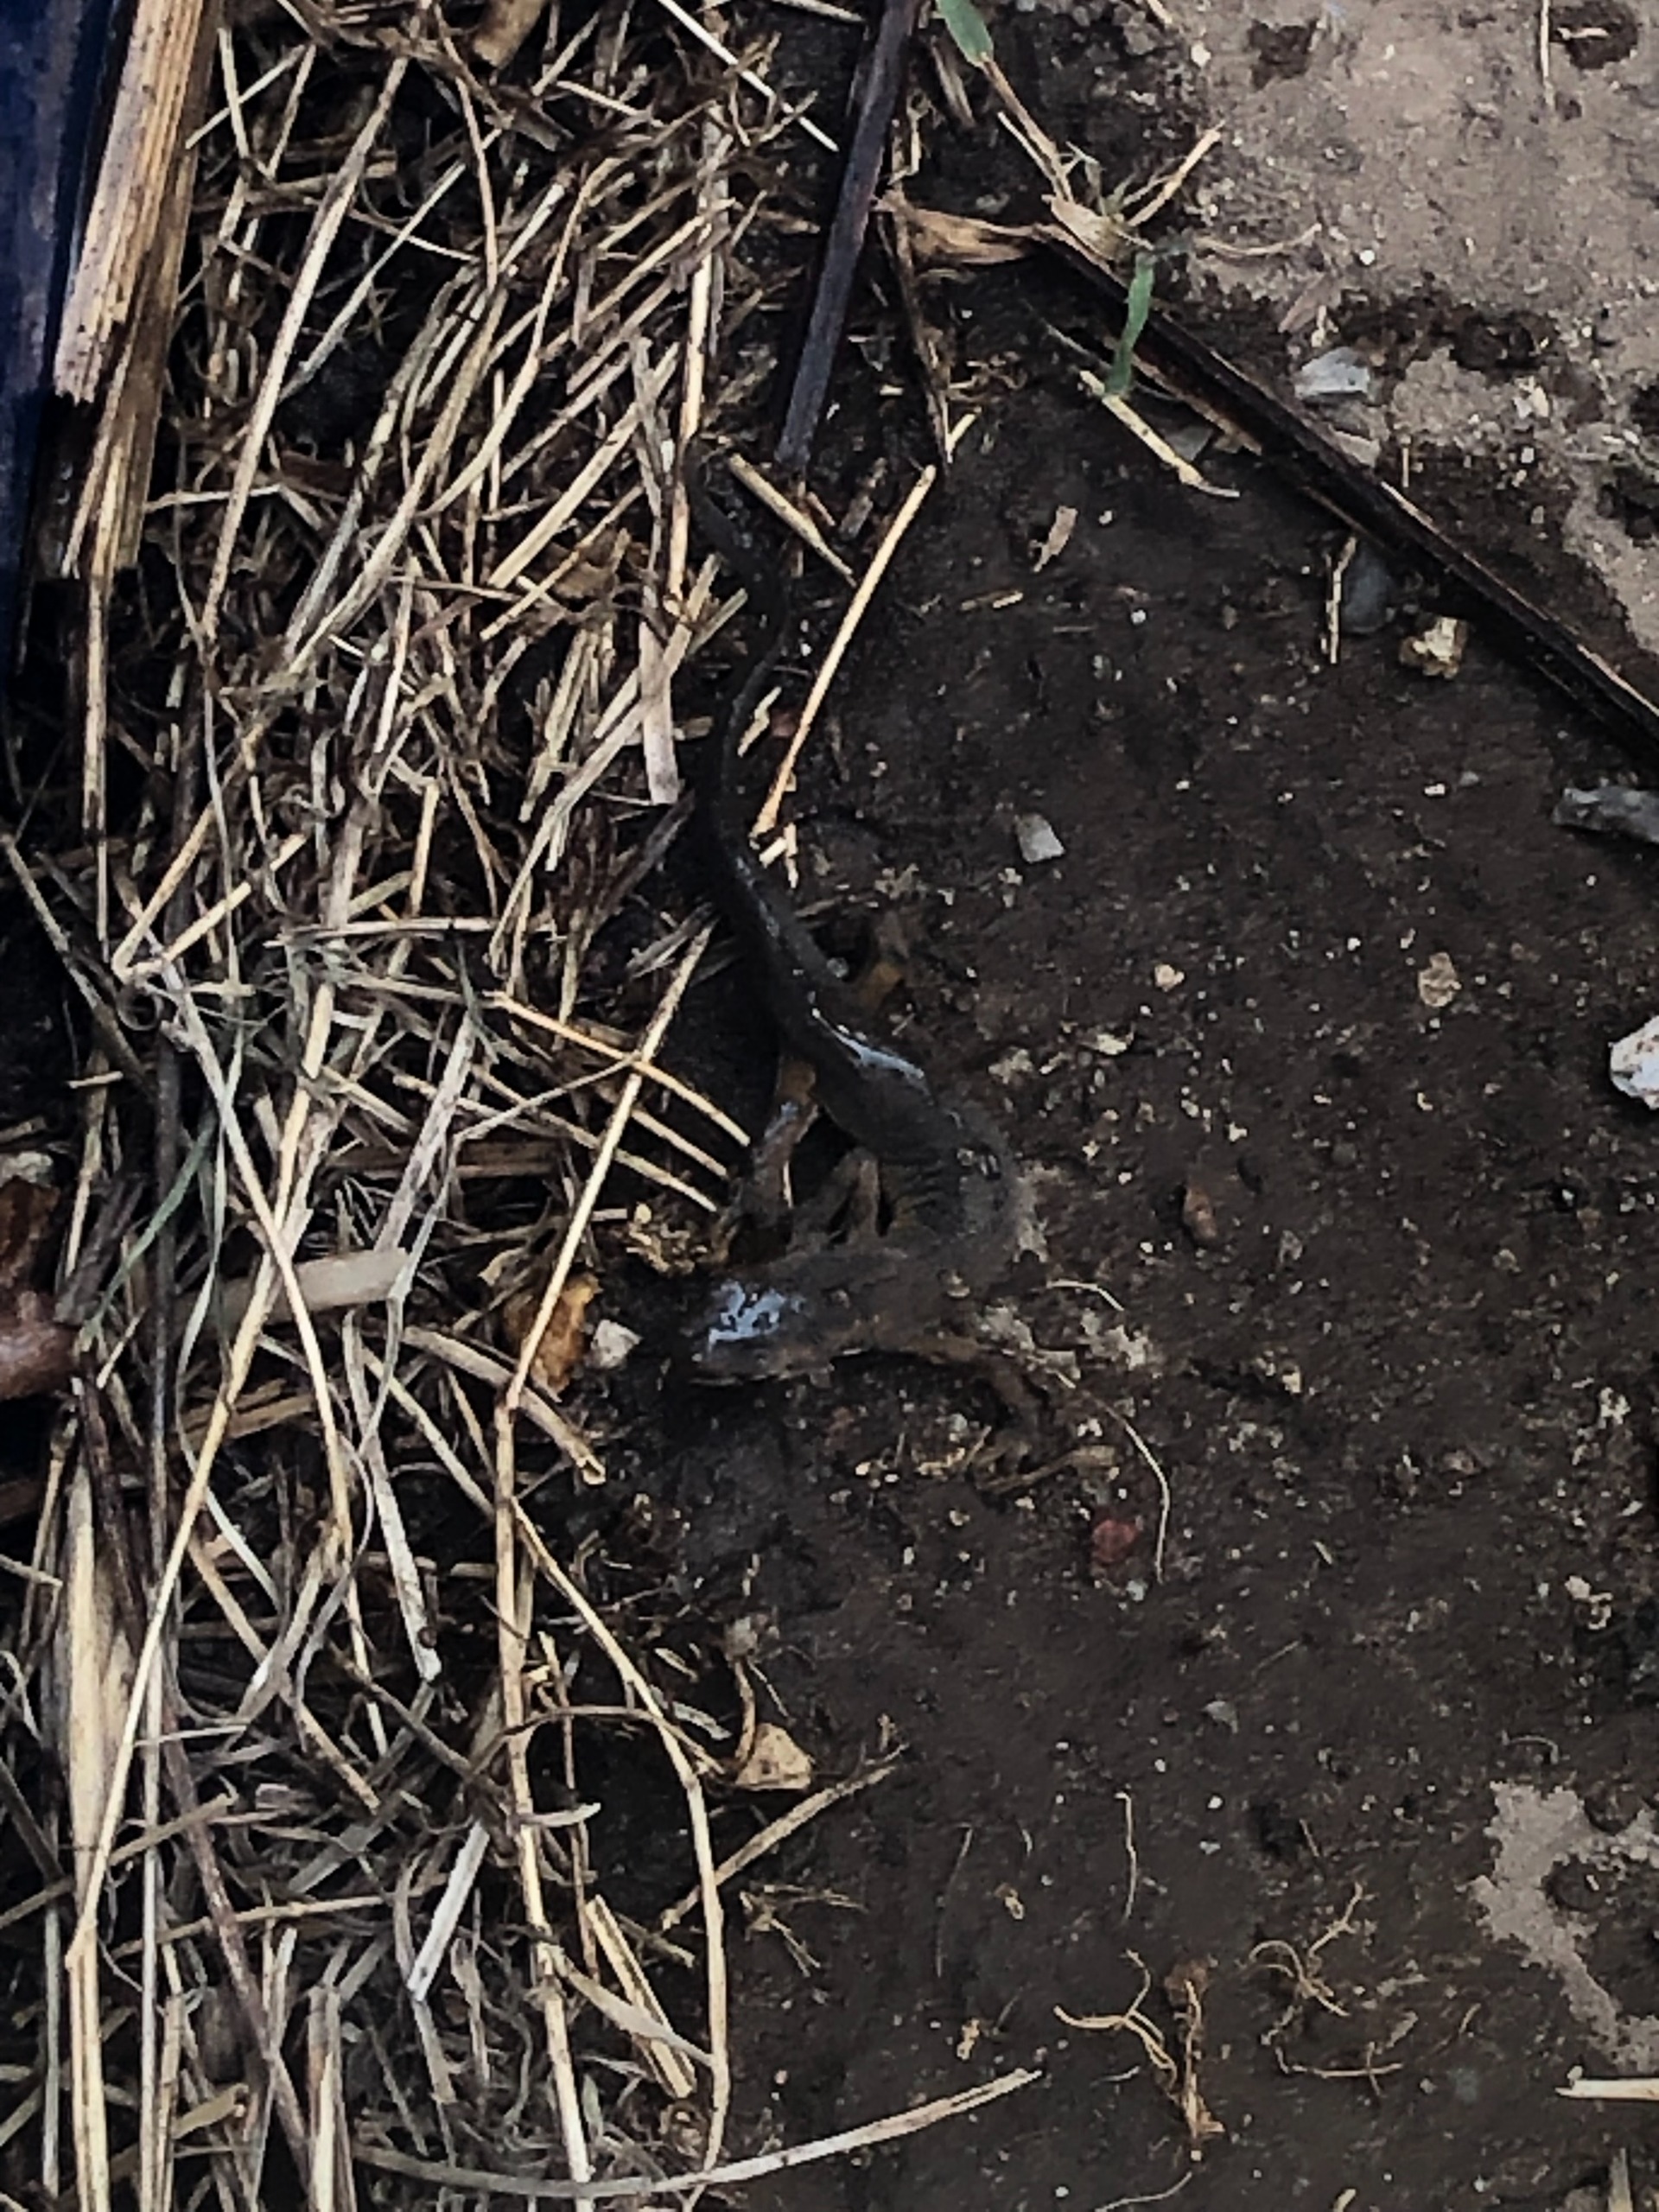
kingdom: Animalia
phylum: Chordata
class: Amphibia
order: Caudata
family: Salamandridae
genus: Lissotriton
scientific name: Lissotriton vulgaris
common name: Lille vandsalamander
